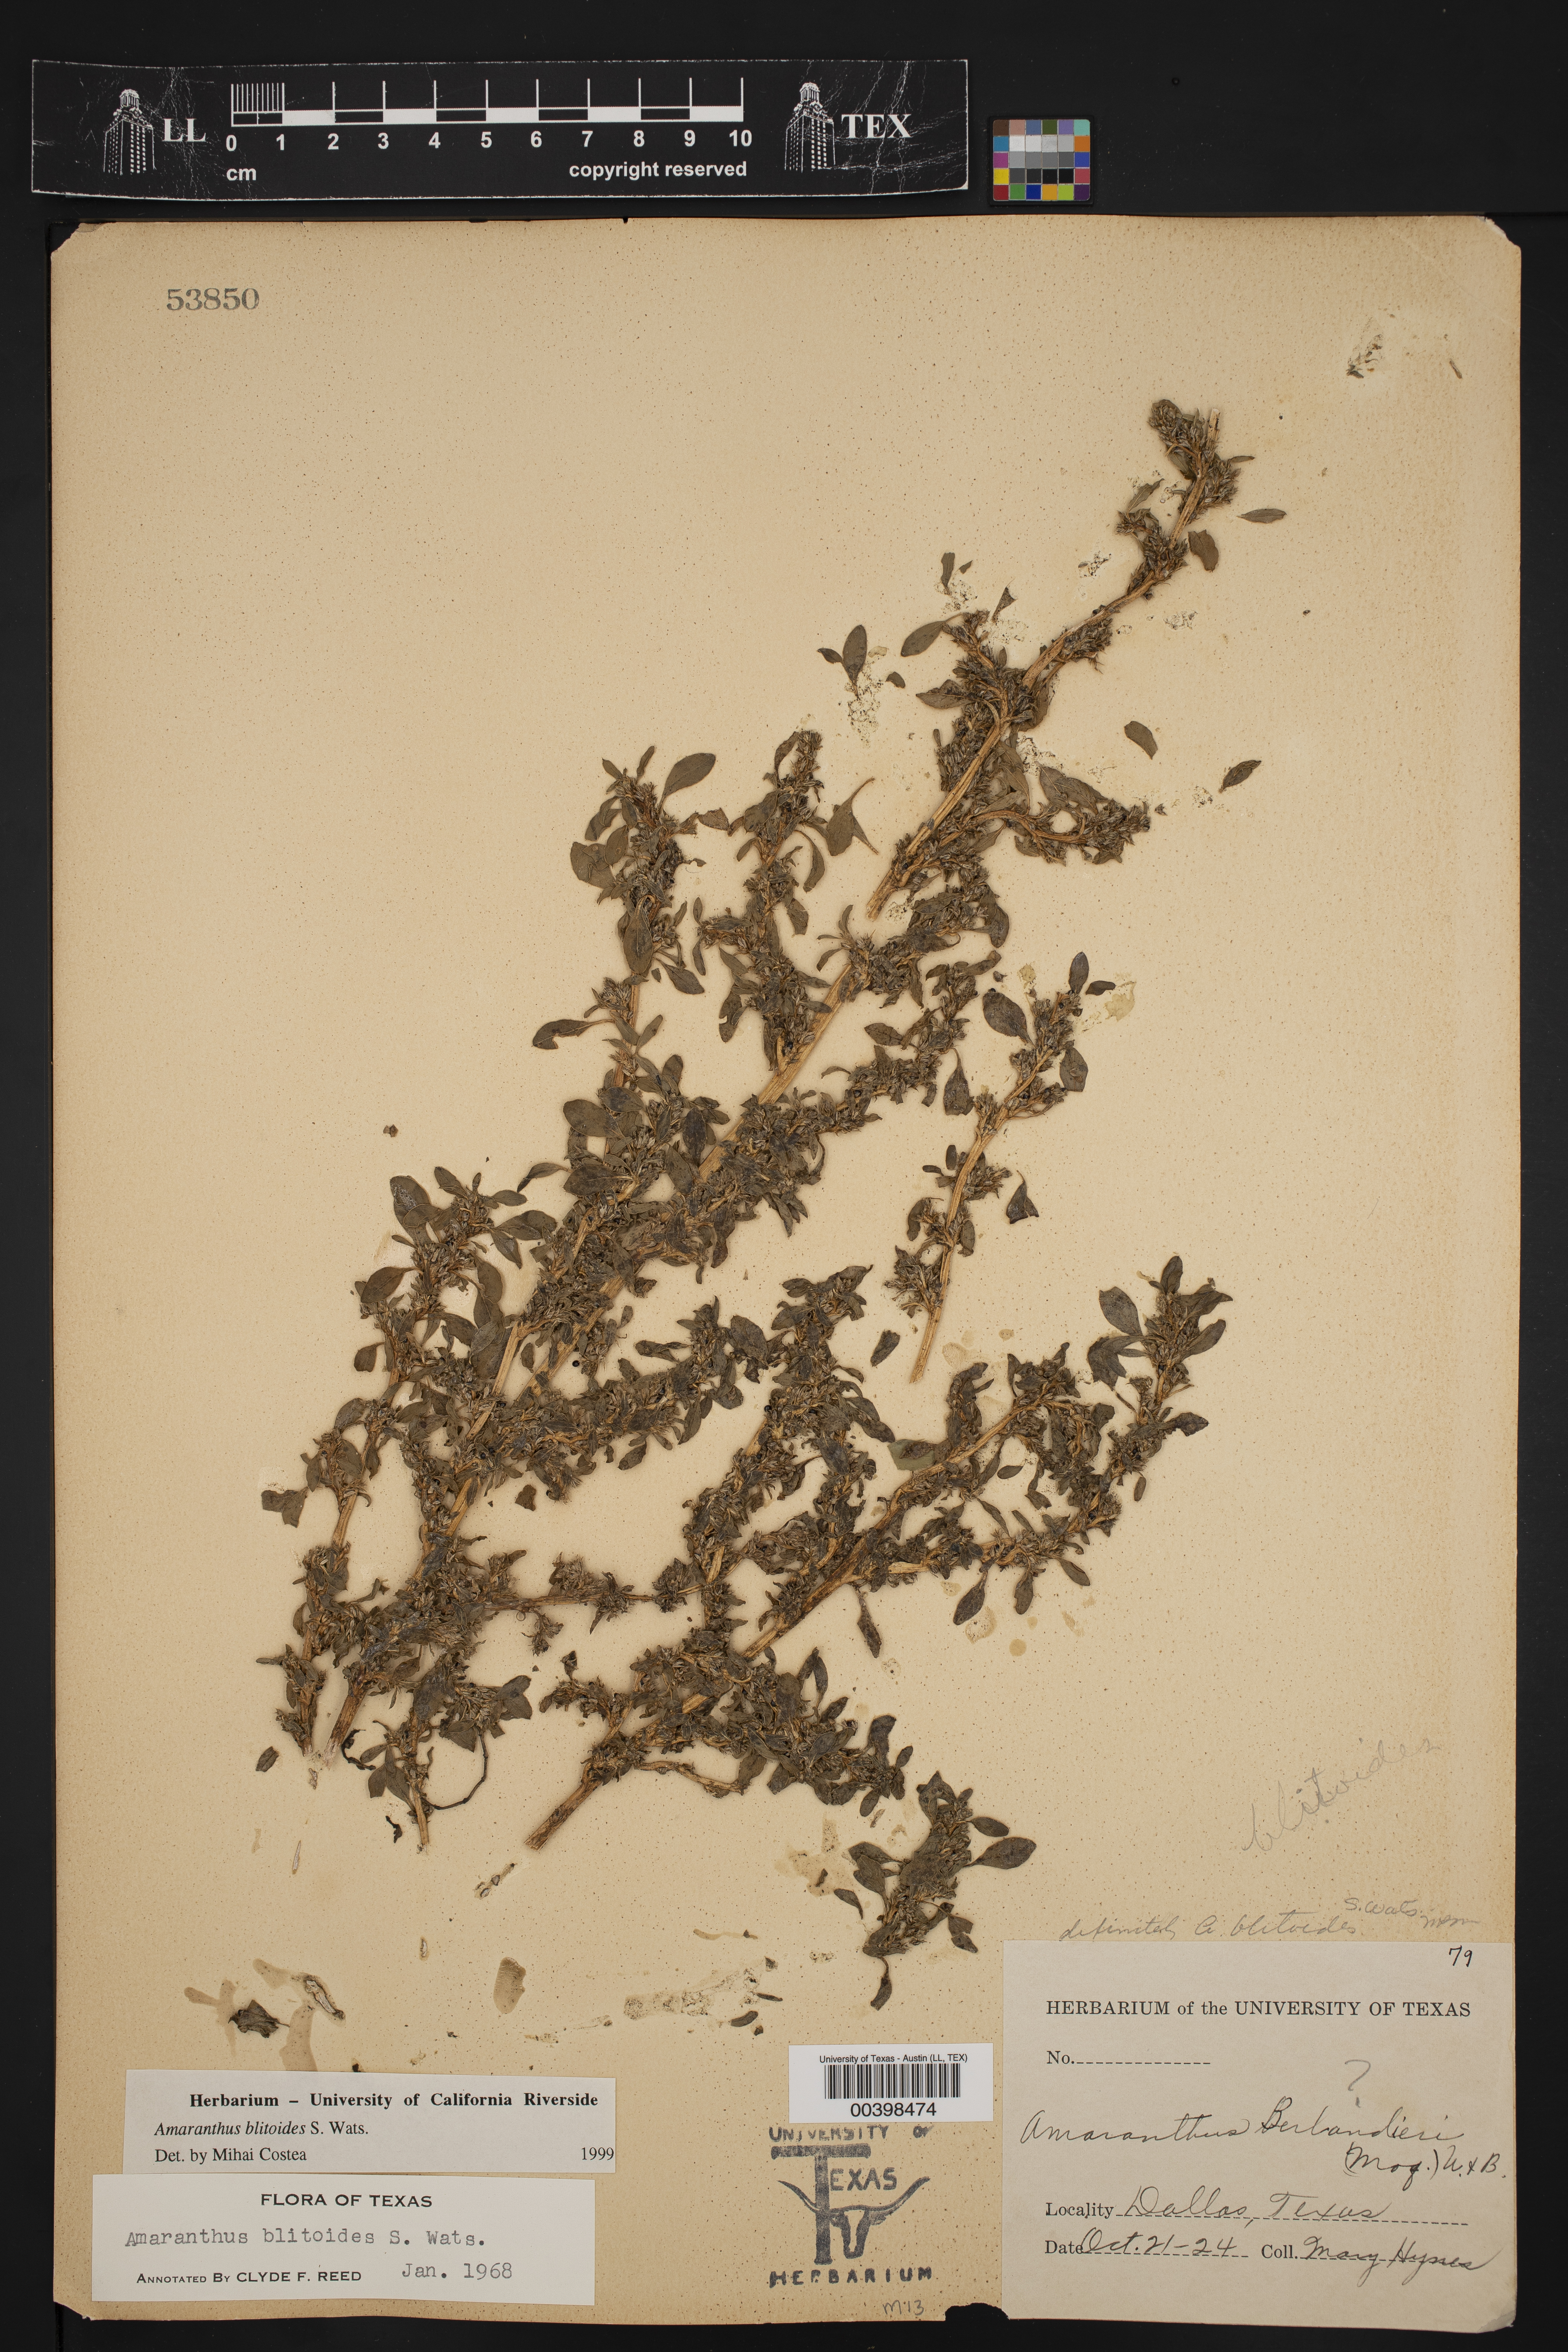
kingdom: Plantae
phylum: Tracheophyta
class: Magnoliopsida
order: Caryophyllales
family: Amaranthaceae
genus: Amaranthus
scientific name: Amaranthus blitoides
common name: Prostrate pigweed
